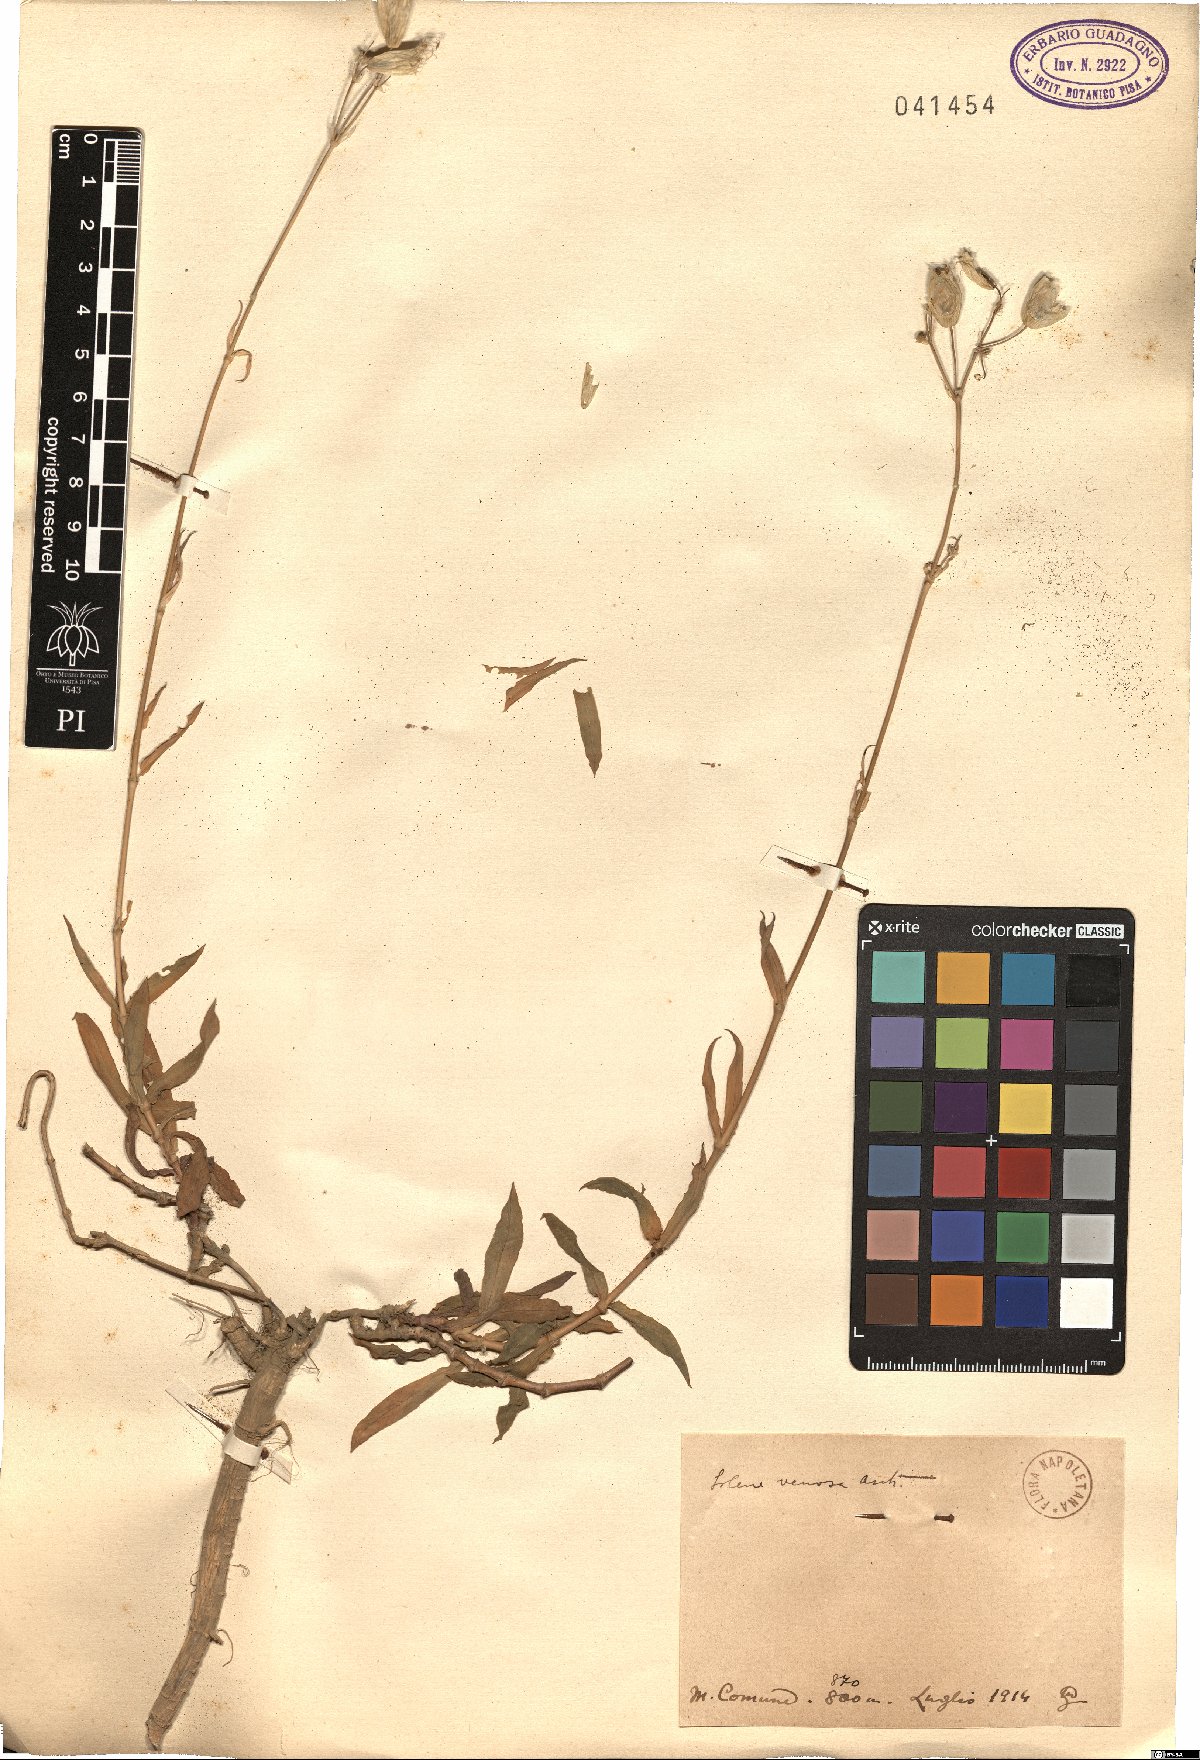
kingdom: Plantae
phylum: Tracheophyta
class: Magnoliopsida
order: Caryophyllales
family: Caryophyllaceae
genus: Silene
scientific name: Silene vulgaris
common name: Bladder campion
